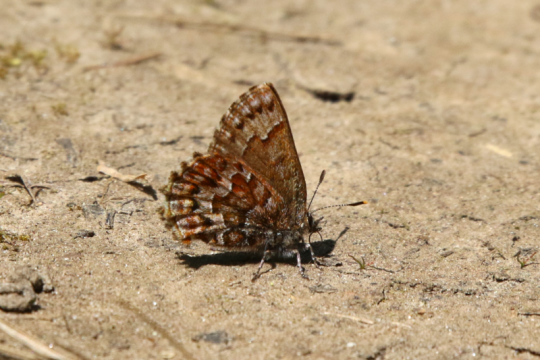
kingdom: Animalia
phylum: Arthropoda
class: Insecta
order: Lepidoptera
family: Lycaenidae
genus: Incisalia
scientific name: Incisalia niphon
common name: Eastern Pine Elfin
